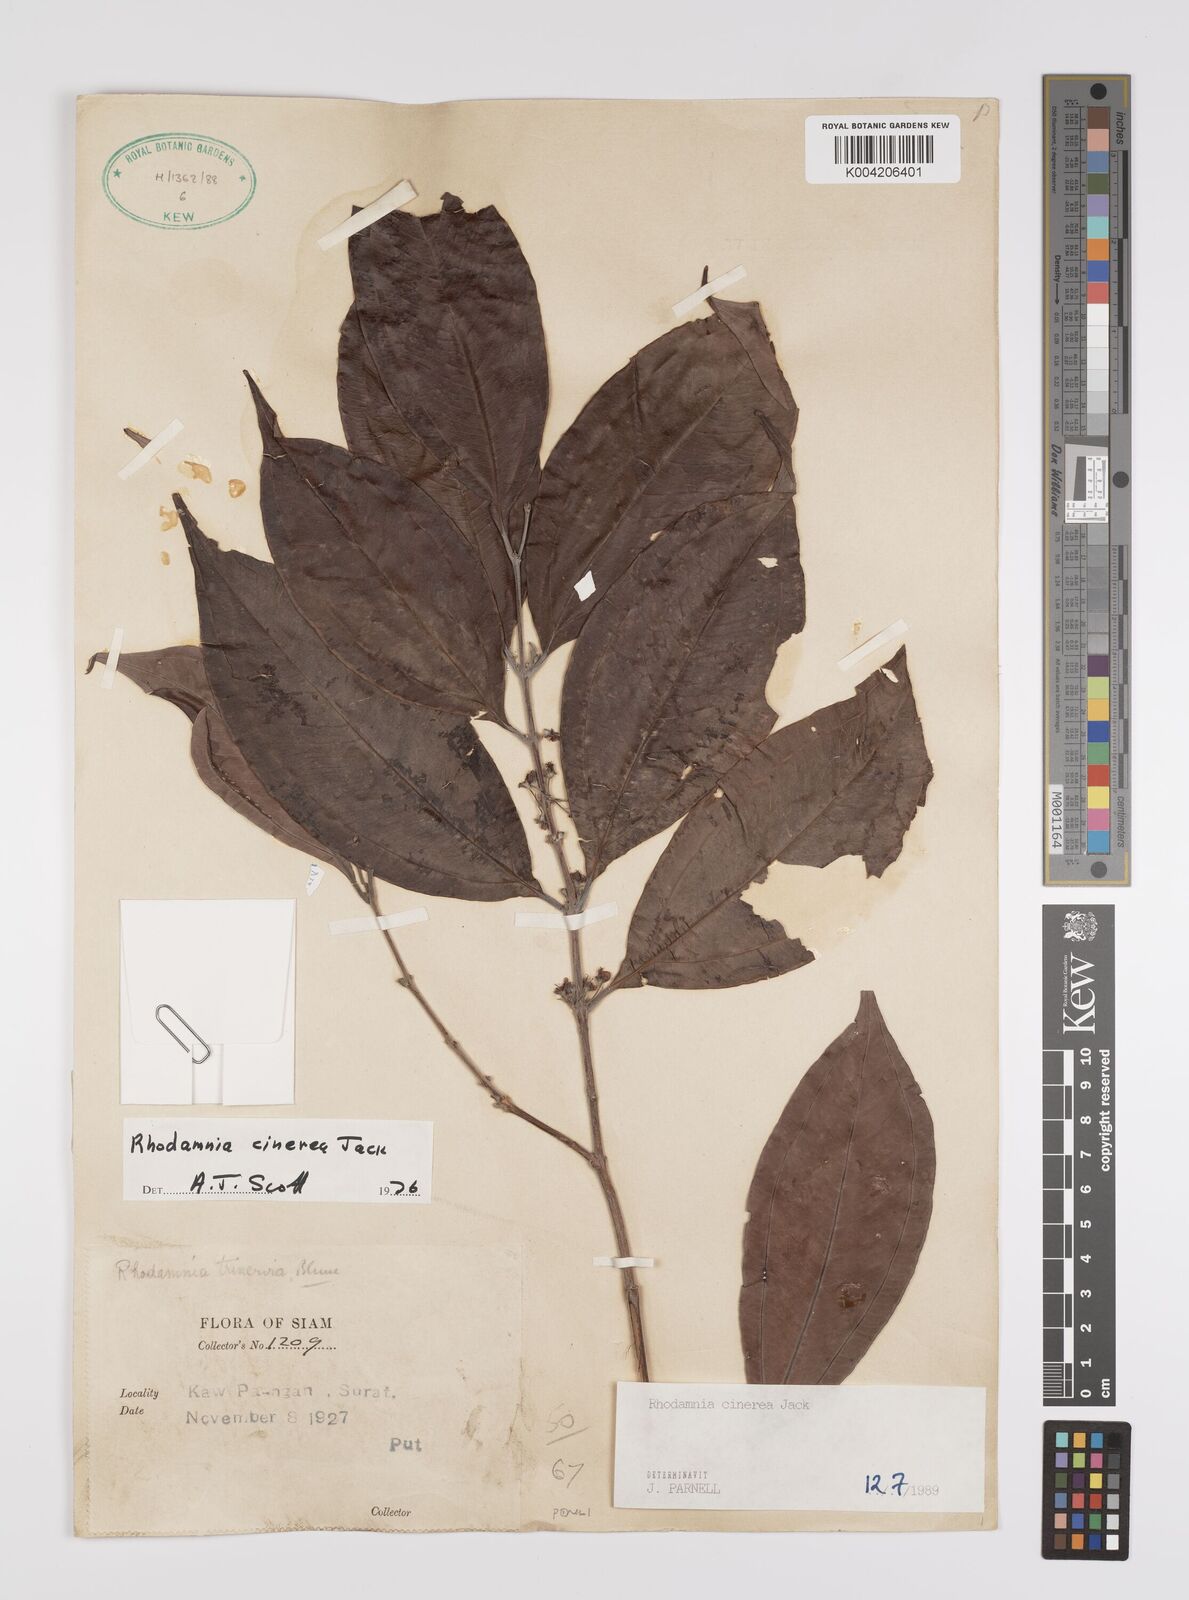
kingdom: Plantae
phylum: Tracheophyta
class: Magnoliopsida
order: Myrtales
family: Myrtaceae
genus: Rhodamnia
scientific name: Rhodamnia cinerea
